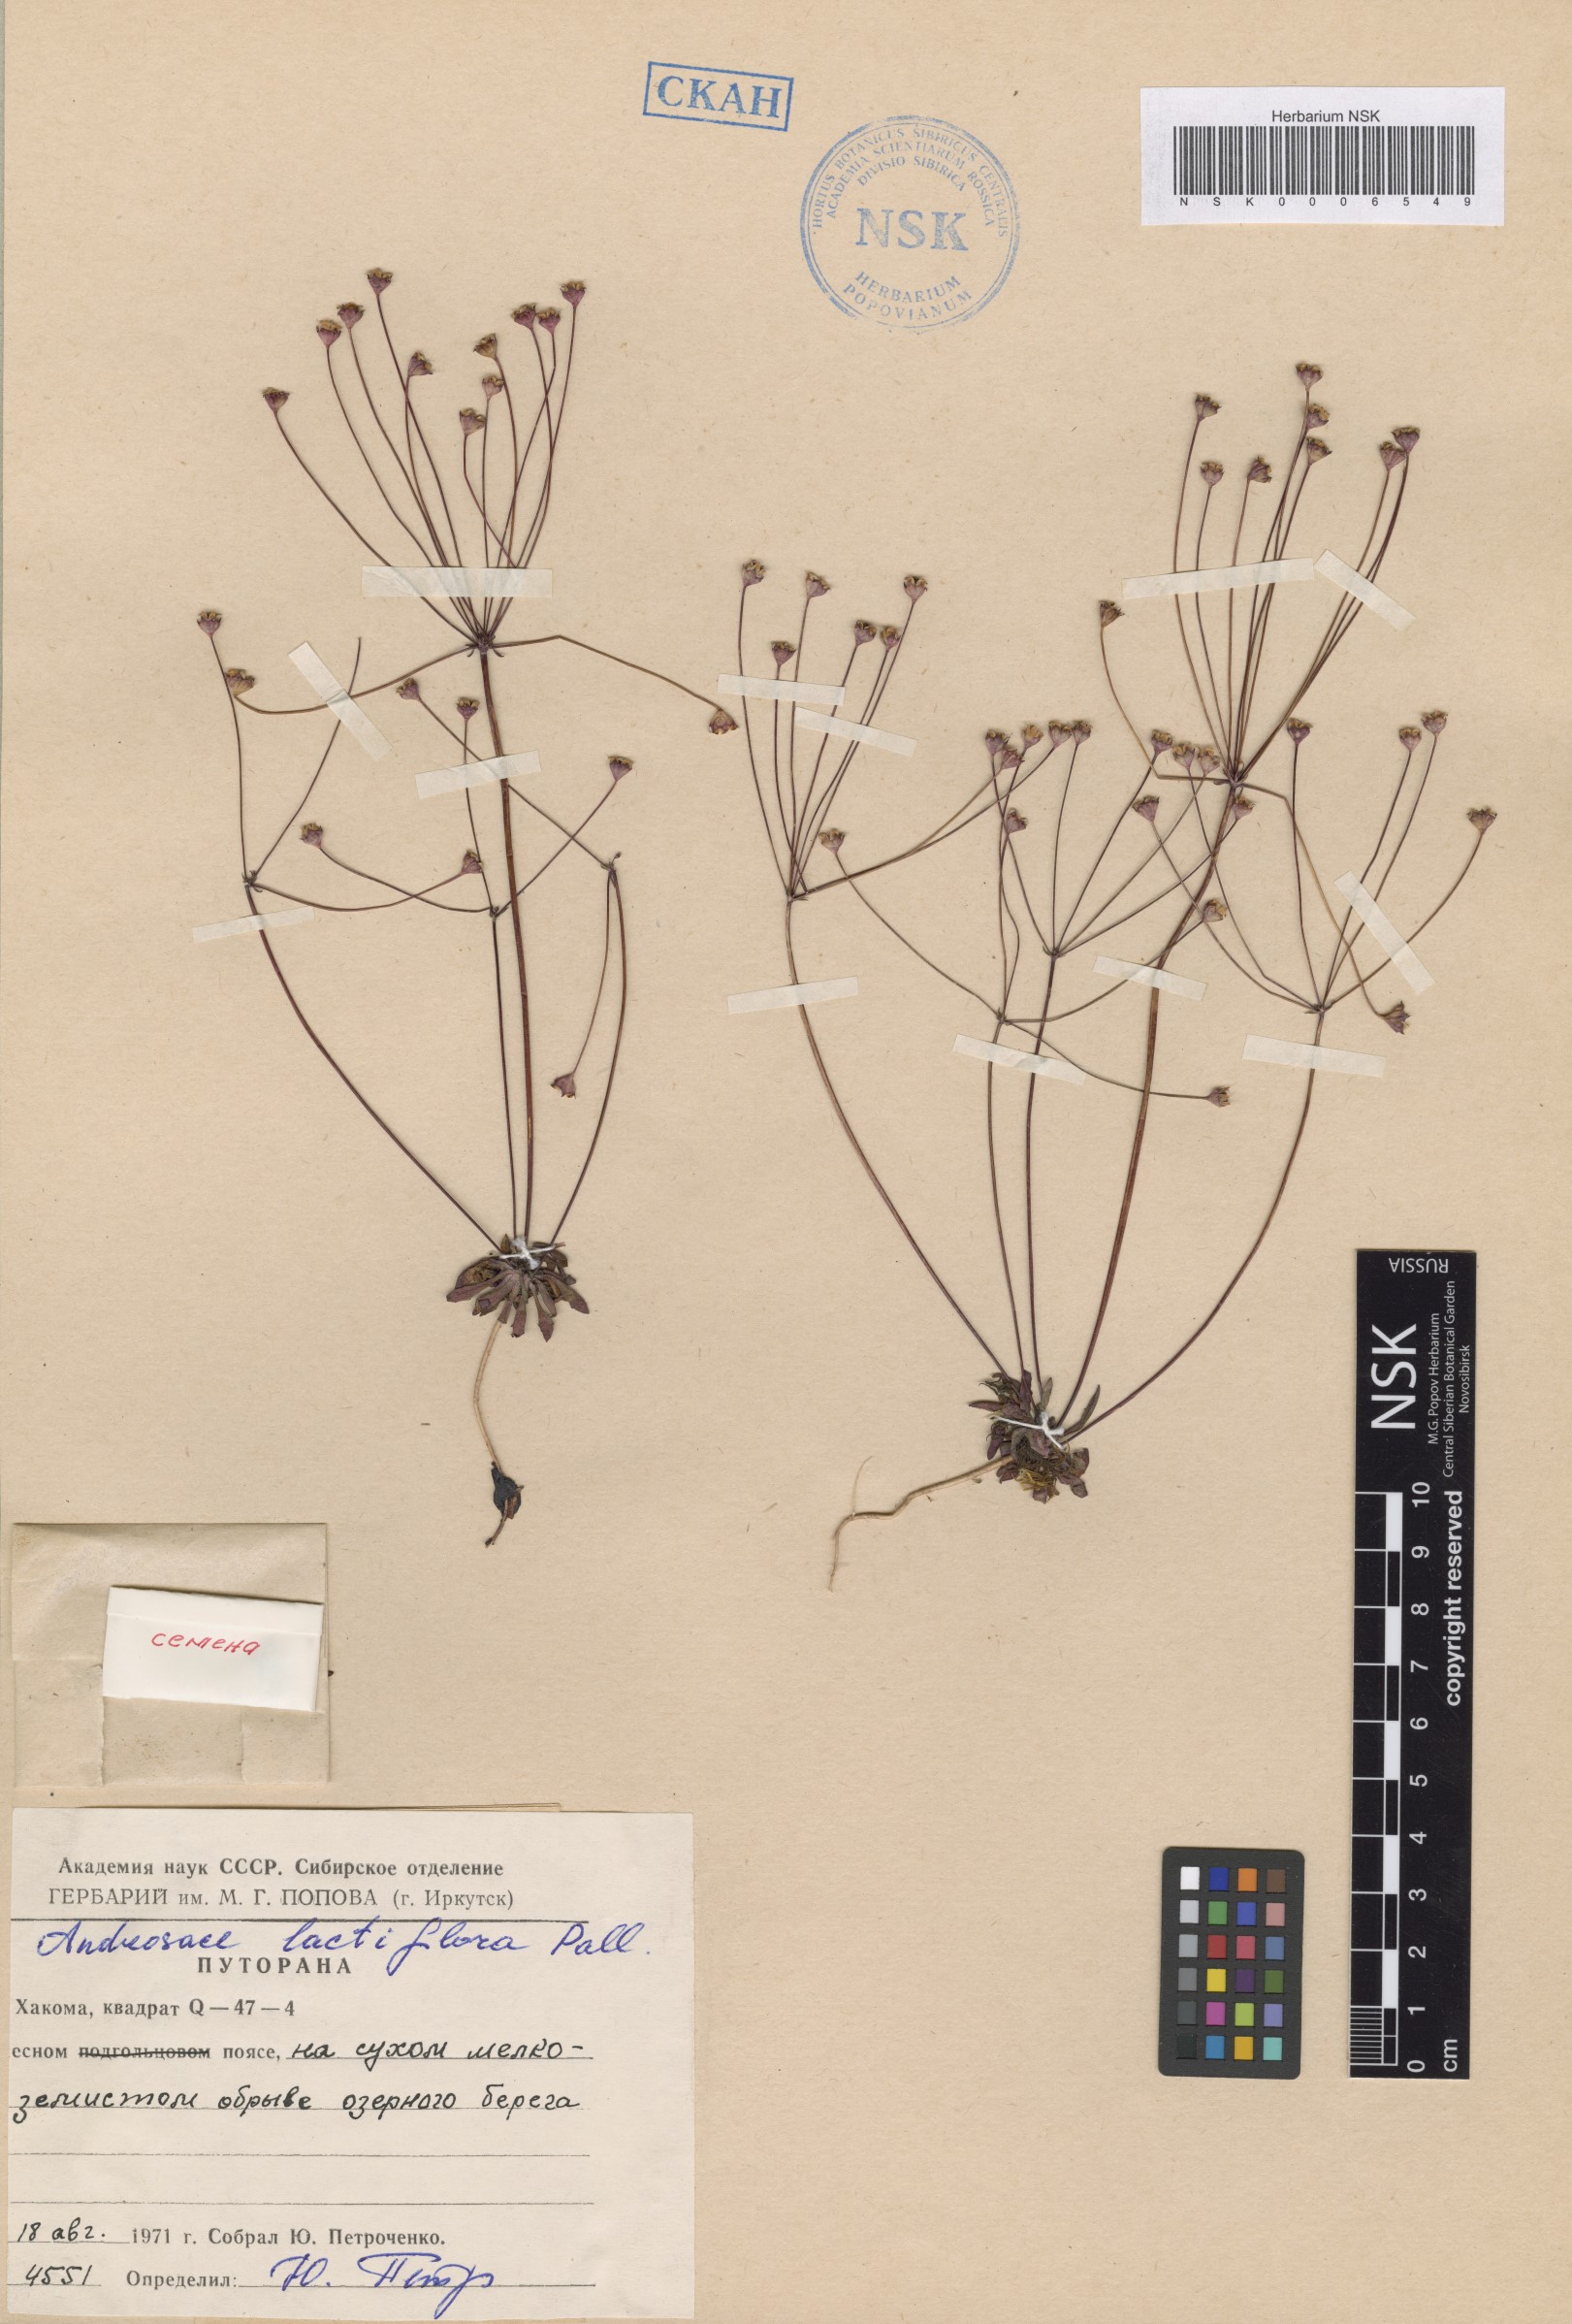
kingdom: Plantae
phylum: Tracheophyta
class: Magnoliopsida
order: Ericales
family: Primulaceae
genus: Androsace
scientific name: Androsace lactiflora
